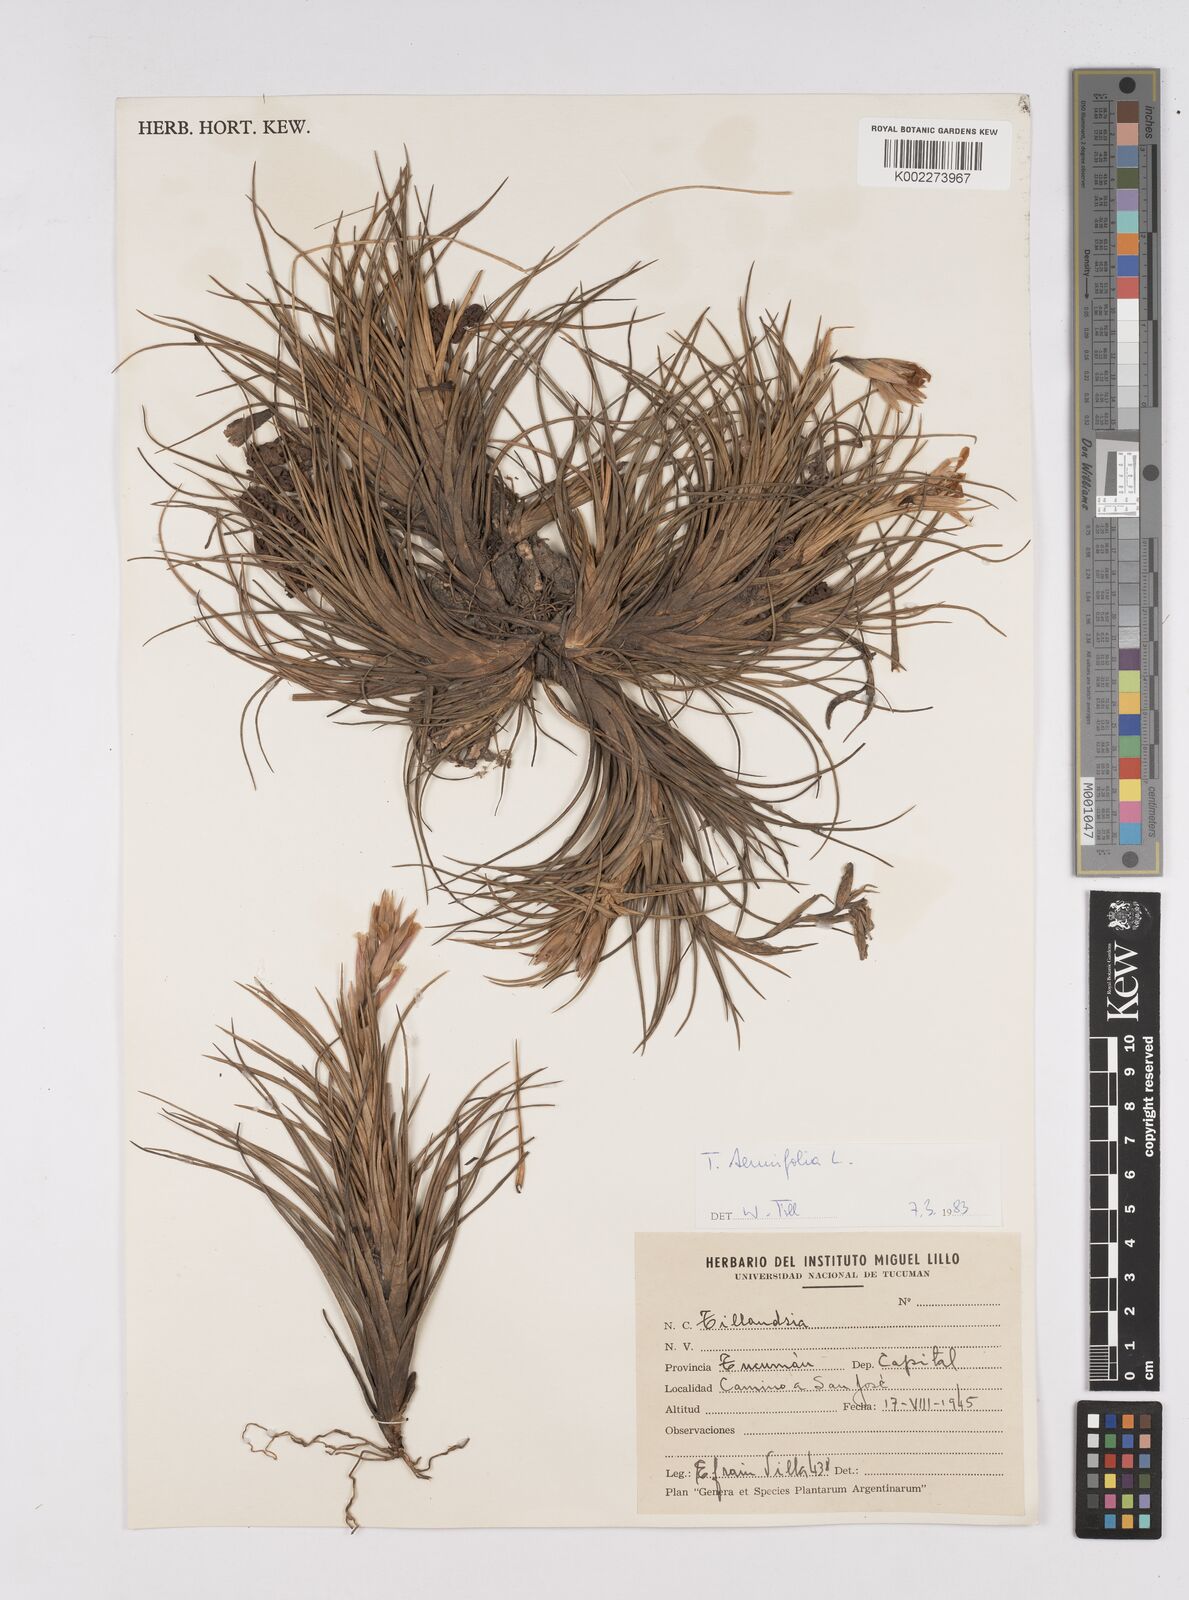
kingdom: Plantae
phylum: Tracheophyta
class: Liliopsida
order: Poales
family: Bromeliaceae
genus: Tillandsia
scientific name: Tillandsia
